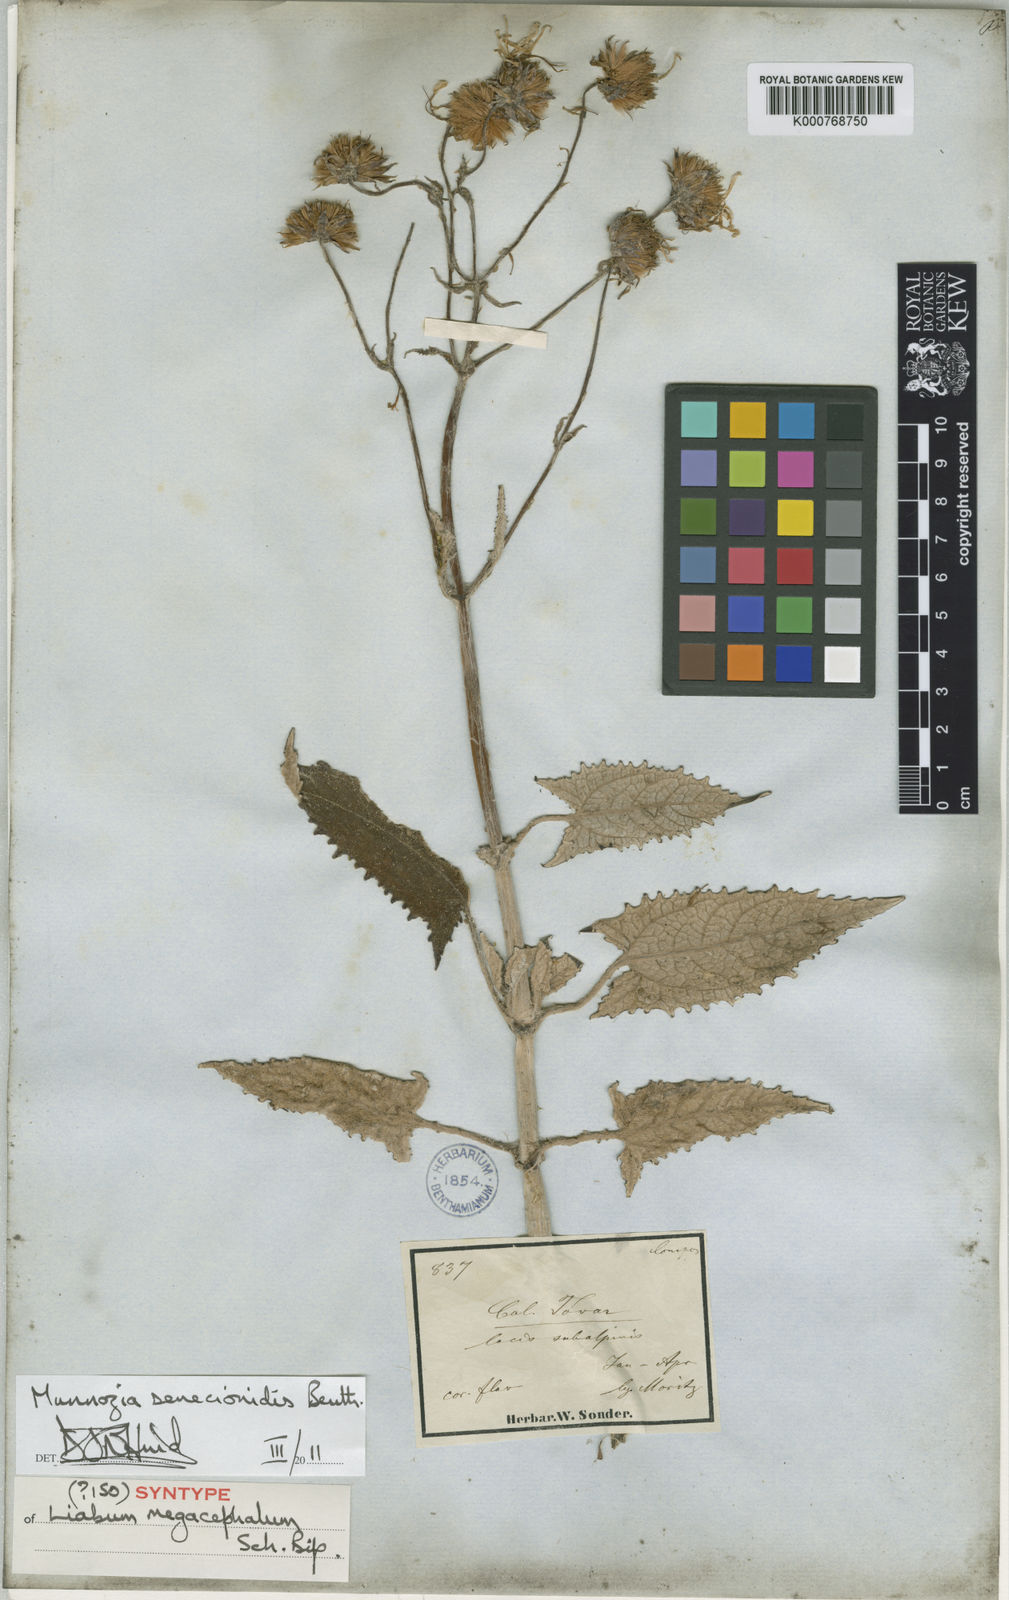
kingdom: Plantae
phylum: Tracheophyta
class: Magnoliopsida
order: Asterales
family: Asteraceae
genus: Munnozia
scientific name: Munnozia senecionidis
